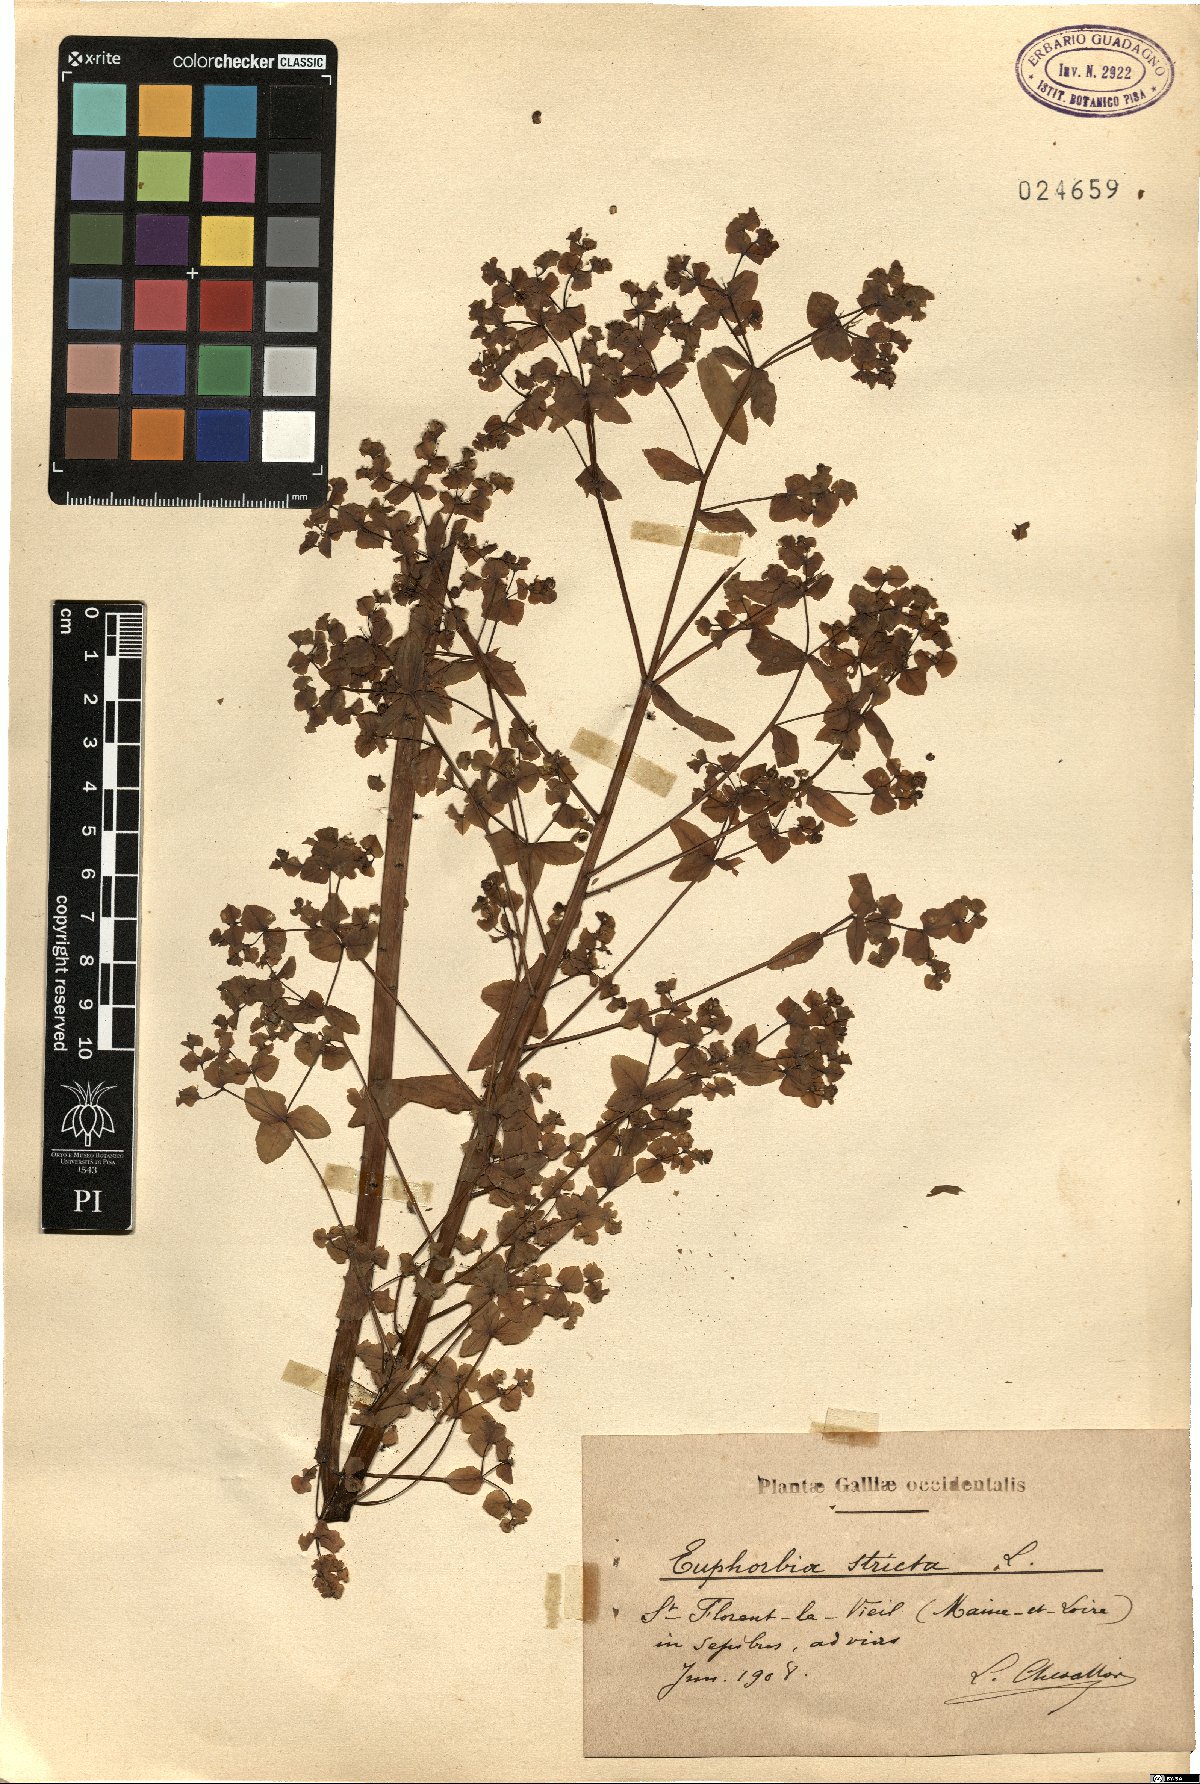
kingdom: Plantae
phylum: Tracheophyta
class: Magnoliopsida
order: Malpighiales
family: Euphorbiaceae
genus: Euphorbia
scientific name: Euphorbia stricta
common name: Upright spurge
